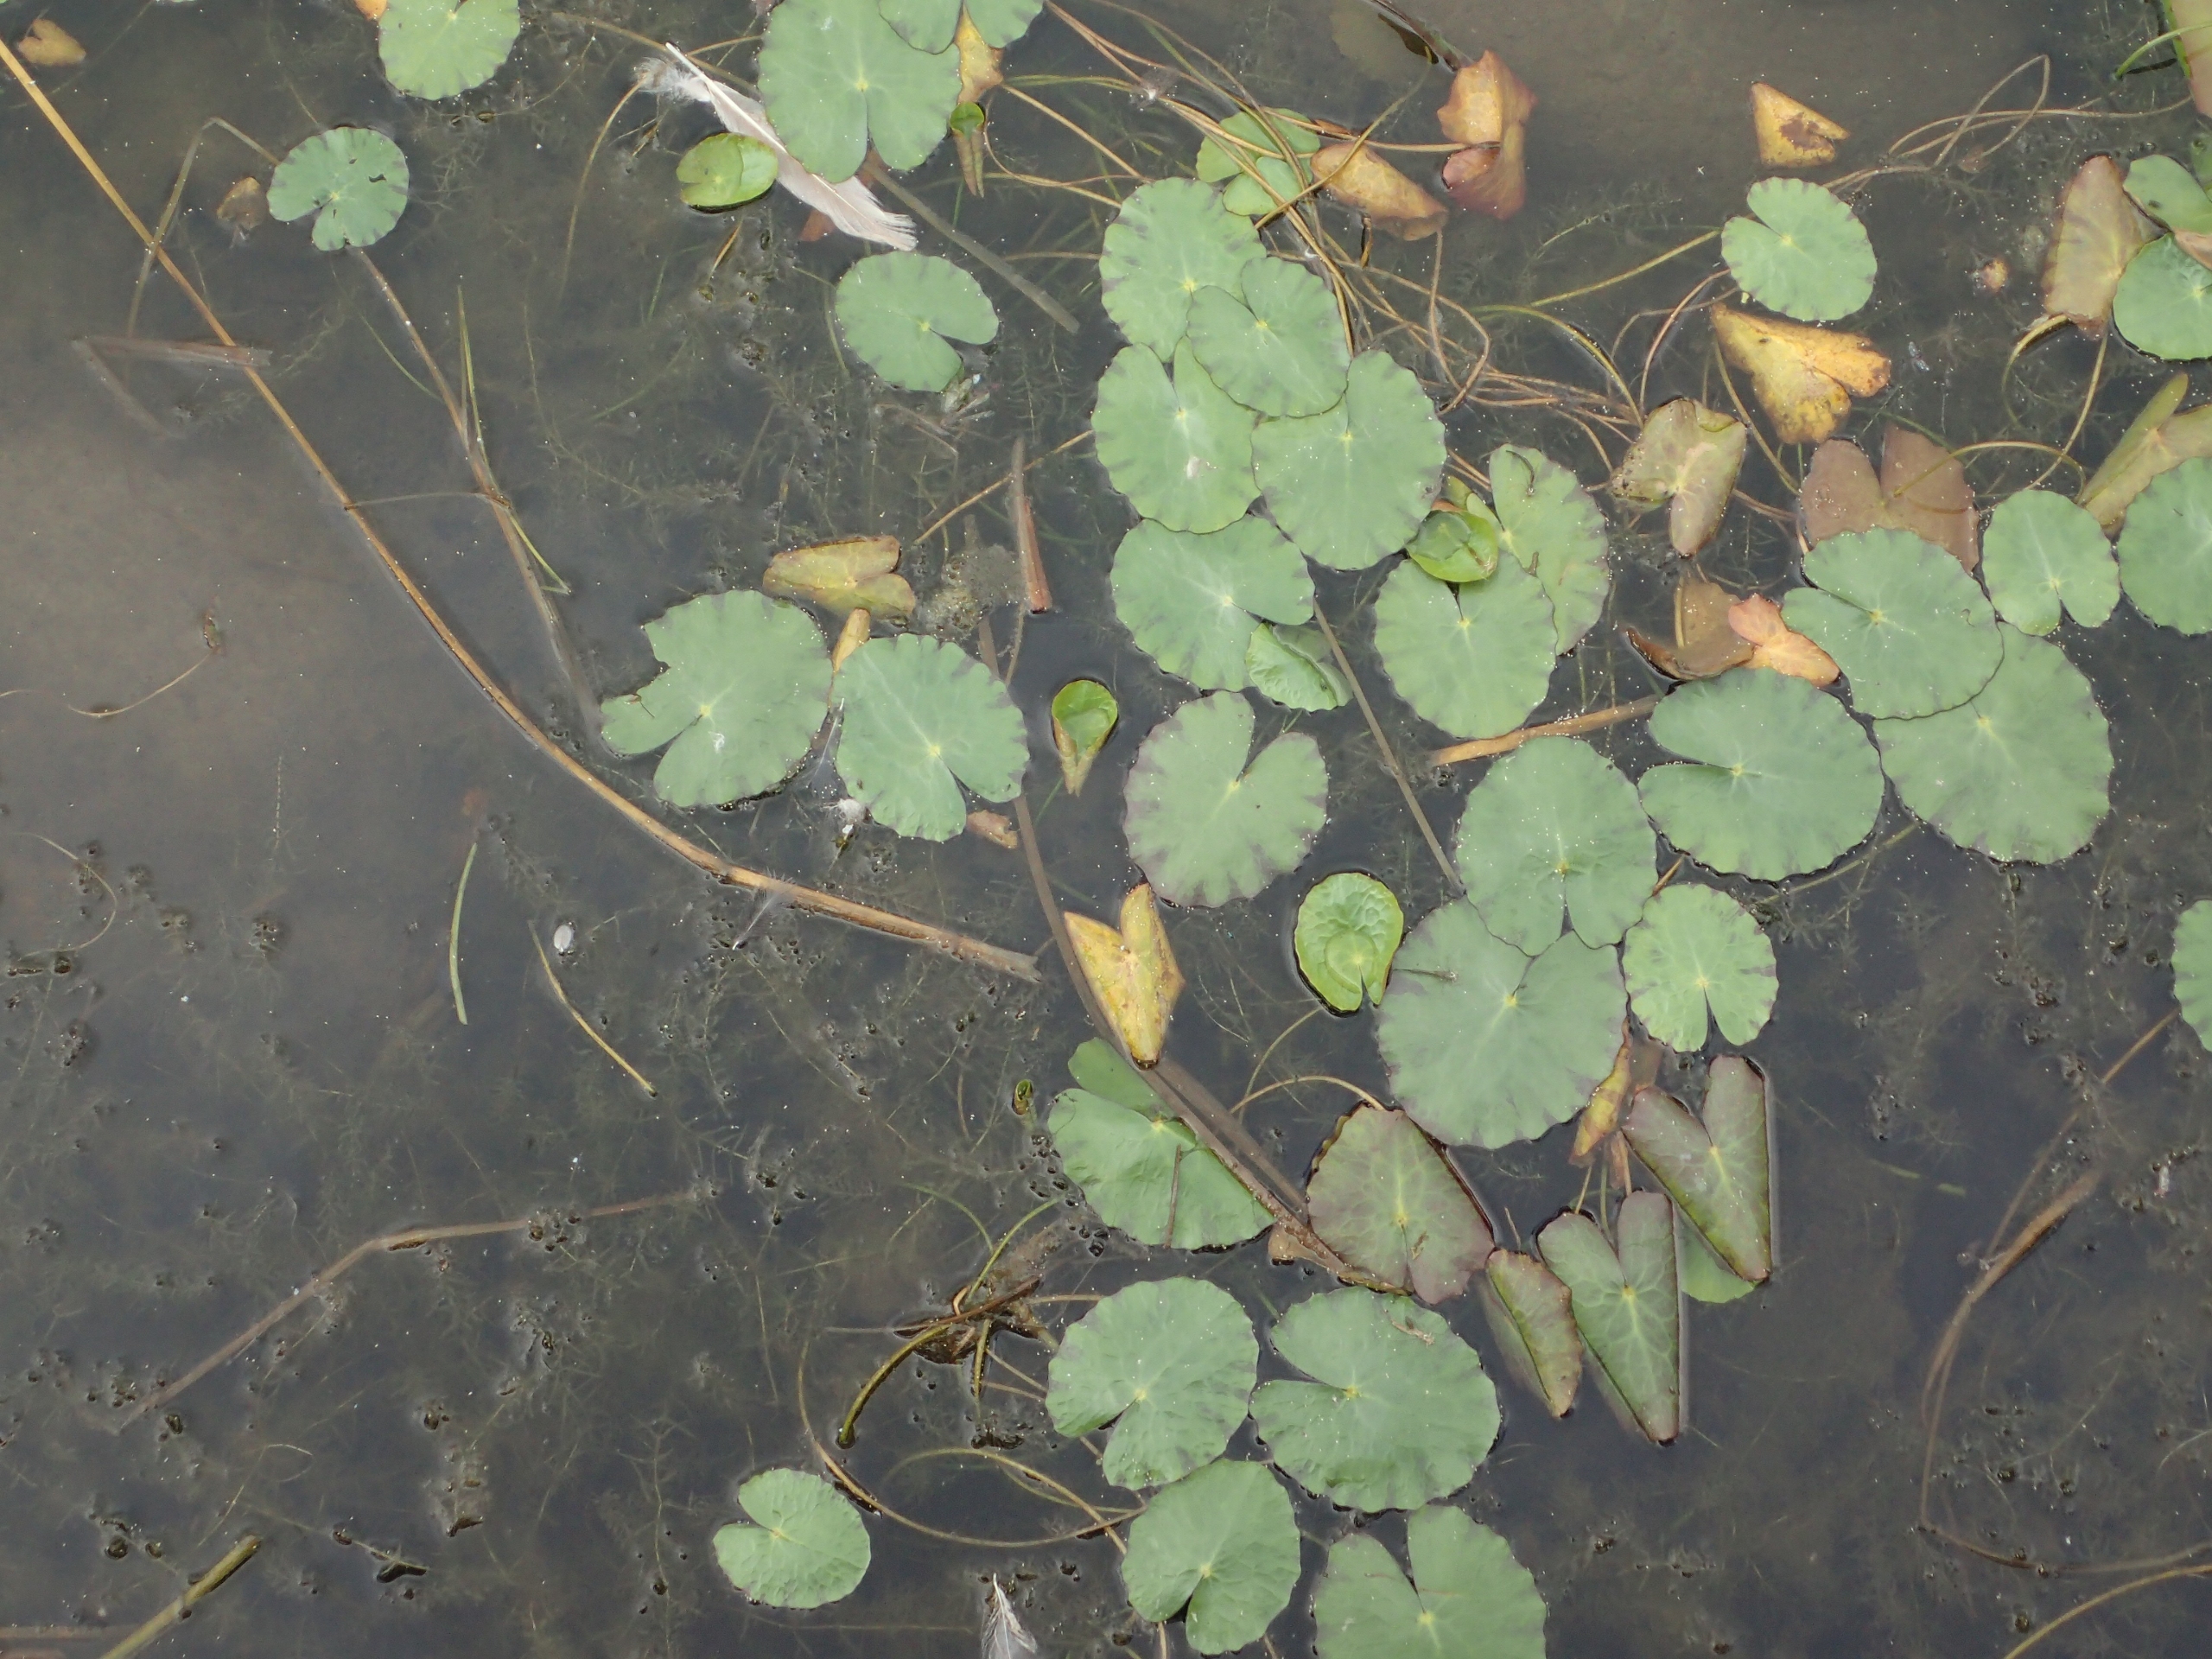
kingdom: Plantae
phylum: Tracheophyta
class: Magnoliopsida
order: Asterales
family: Menyanthaceae
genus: Nymphoides
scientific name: Nymphoides peltata
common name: Søblad
